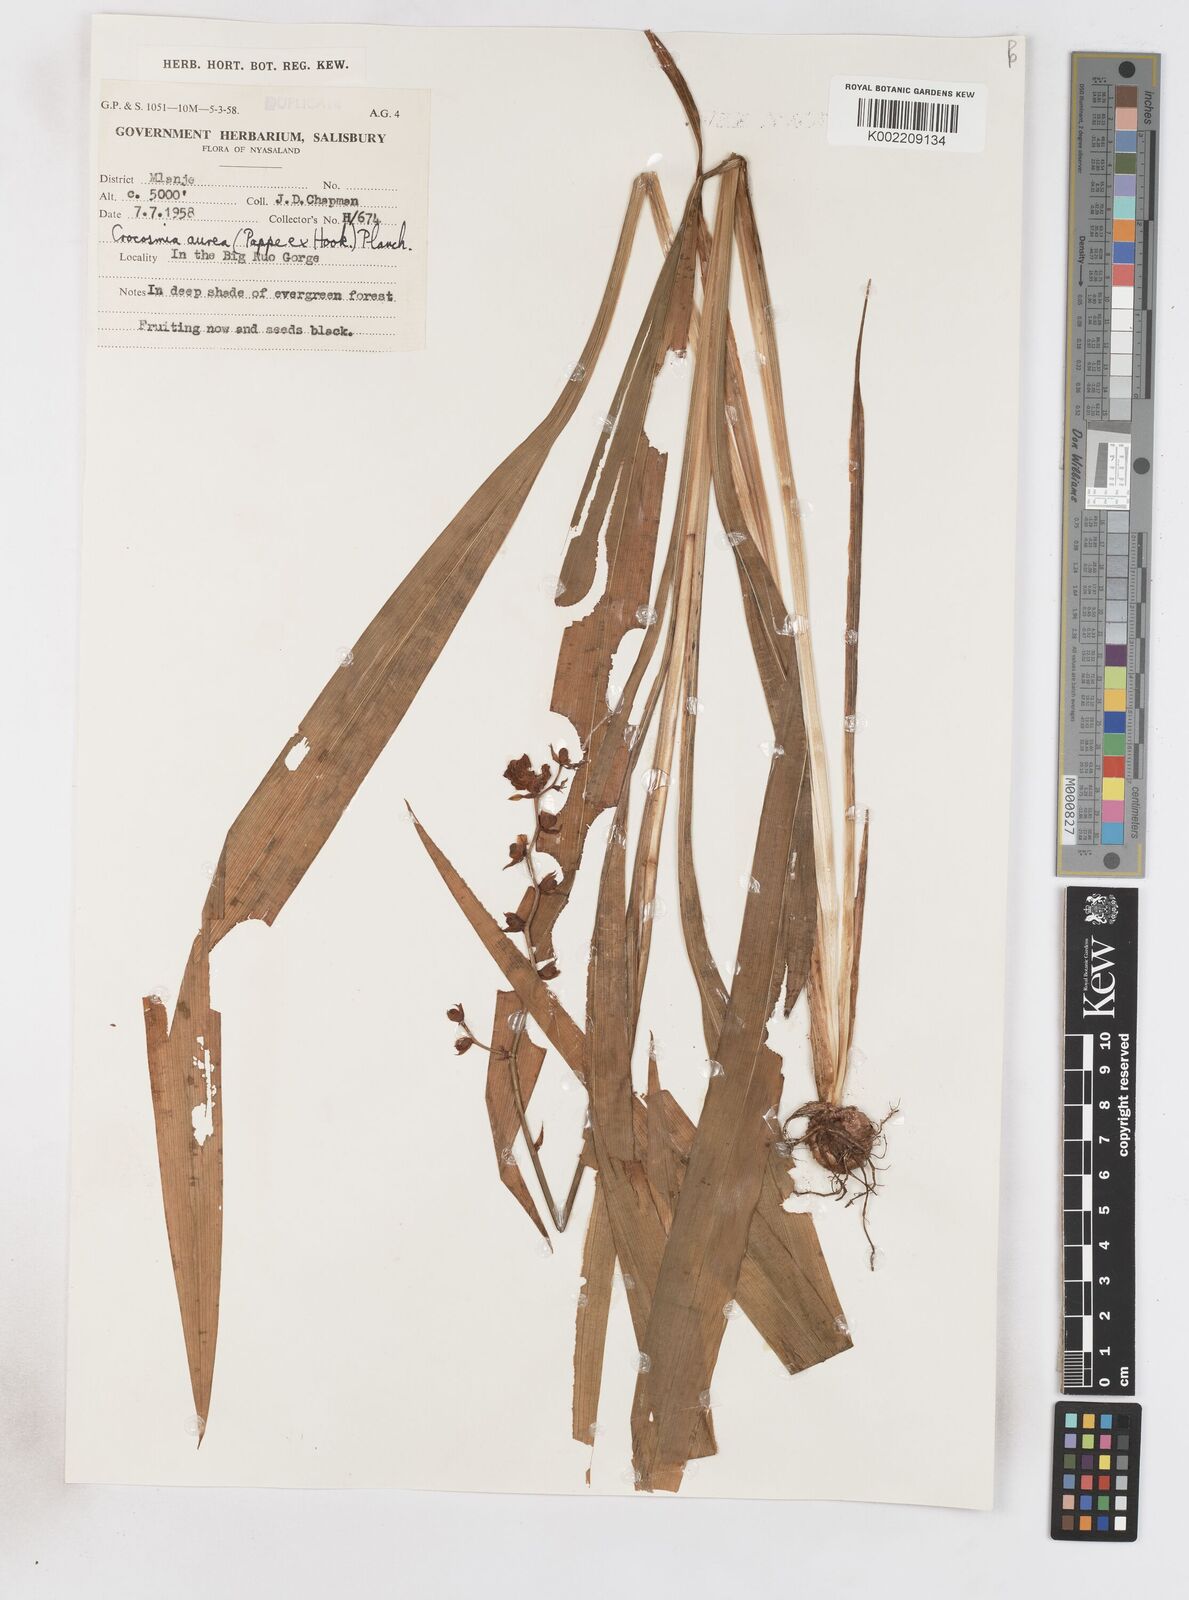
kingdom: Plantae
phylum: Tracheophyta
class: Liliopsida
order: Asparagales
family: Iridaceae
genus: Crocosmia
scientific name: Crocosmia aurea
